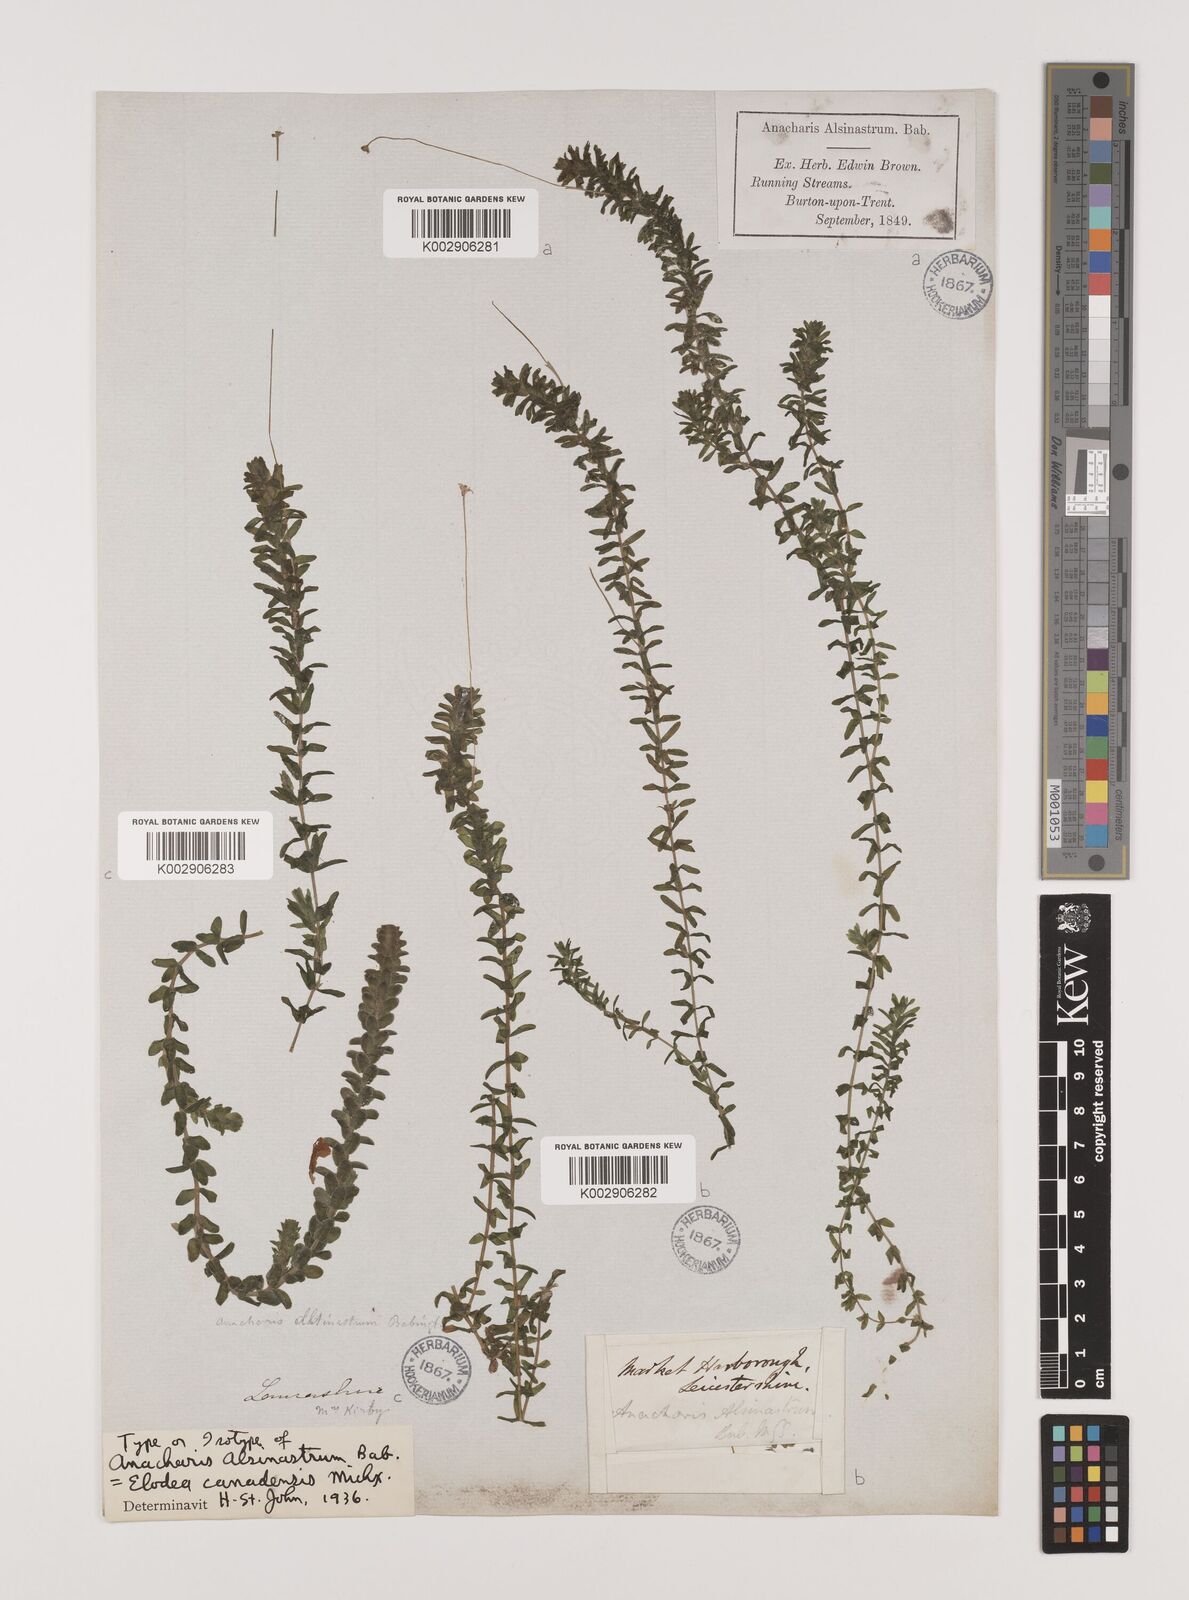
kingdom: Plantae
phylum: Tracheophyta
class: Liliopsida
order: Alismatales
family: Hydrocharitaceae
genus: Elodea
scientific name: Elodea canadensis
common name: Canadian waterweed
